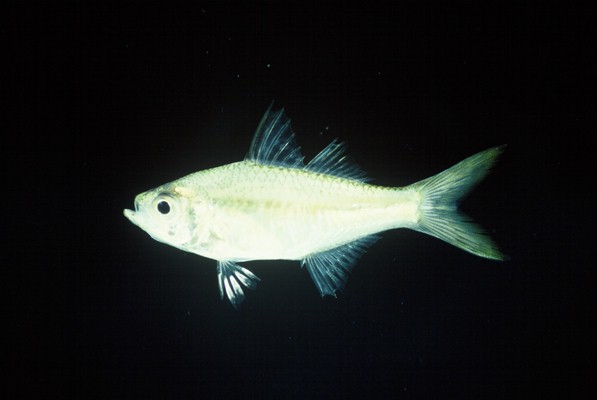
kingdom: Animalia
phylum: Chordata
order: Perciformes
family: Ambassidae
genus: Ambassis
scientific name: Ambassis gymnocephalus
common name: Bald glassy
